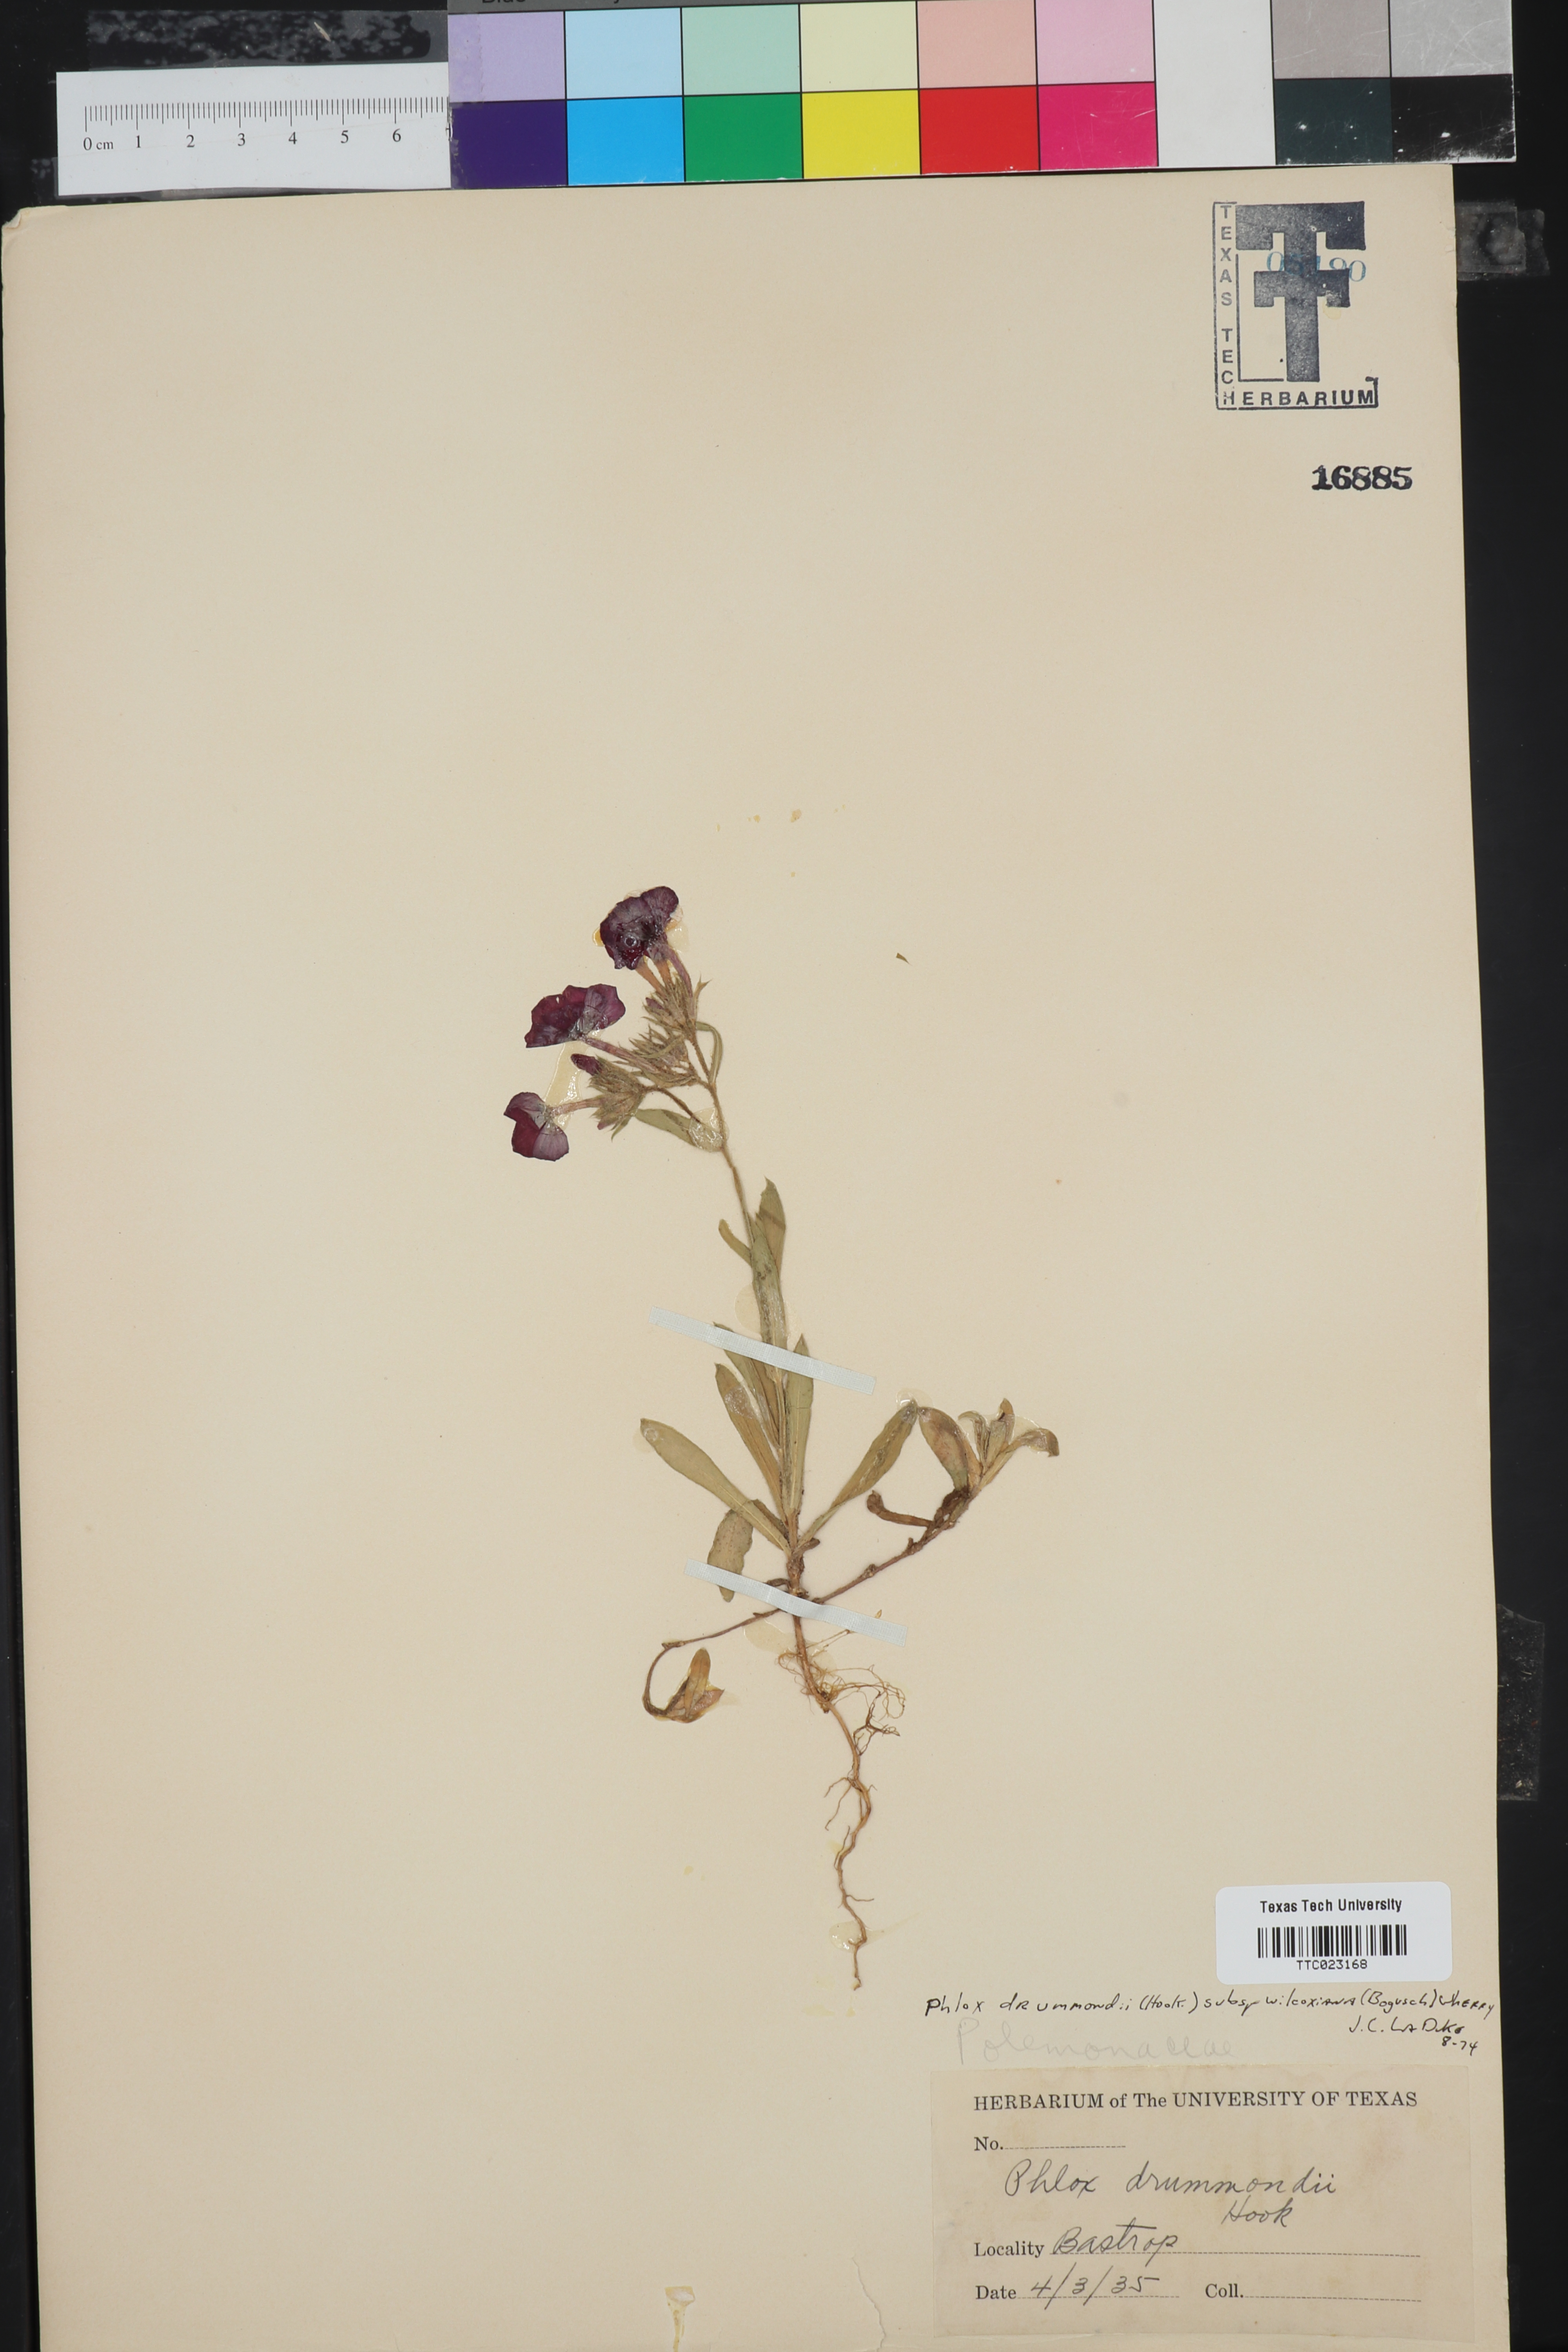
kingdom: Plantae
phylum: Tracheophyta
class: Magnoliopsida
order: Ericales
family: Polemoniaceae
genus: Phlox
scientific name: Phlox drummondii
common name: Drummond's phlox
